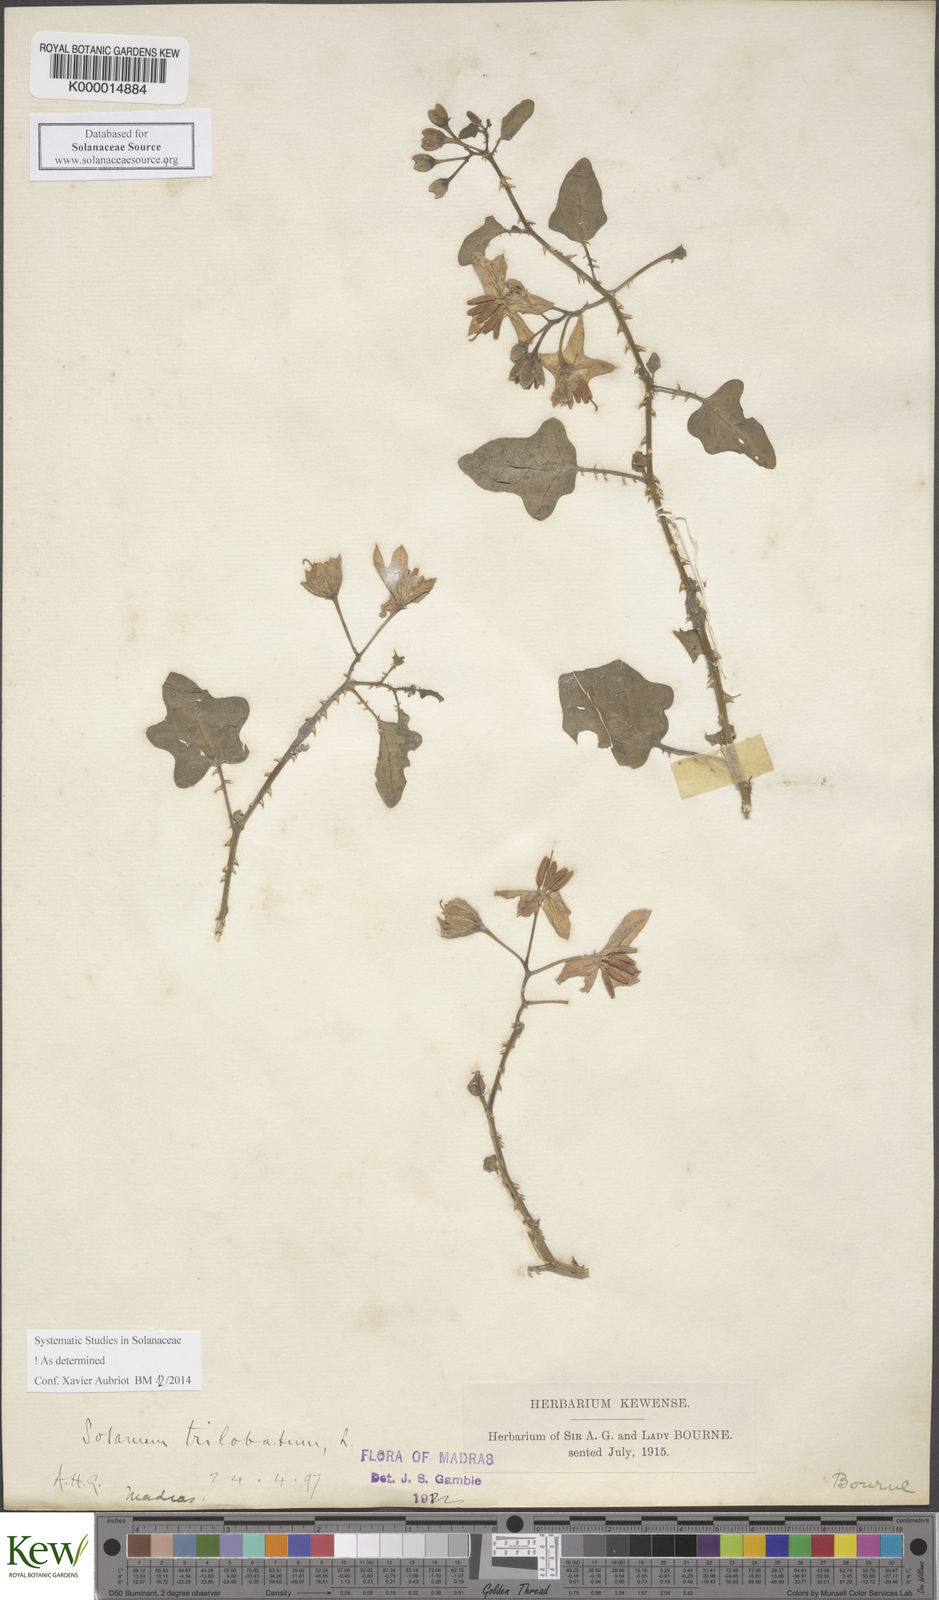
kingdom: Plantae
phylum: Tracheophyta
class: Magnoliopsida
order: Solanales
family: Solanaceae
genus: Solanum
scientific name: Solanum trilobatum
